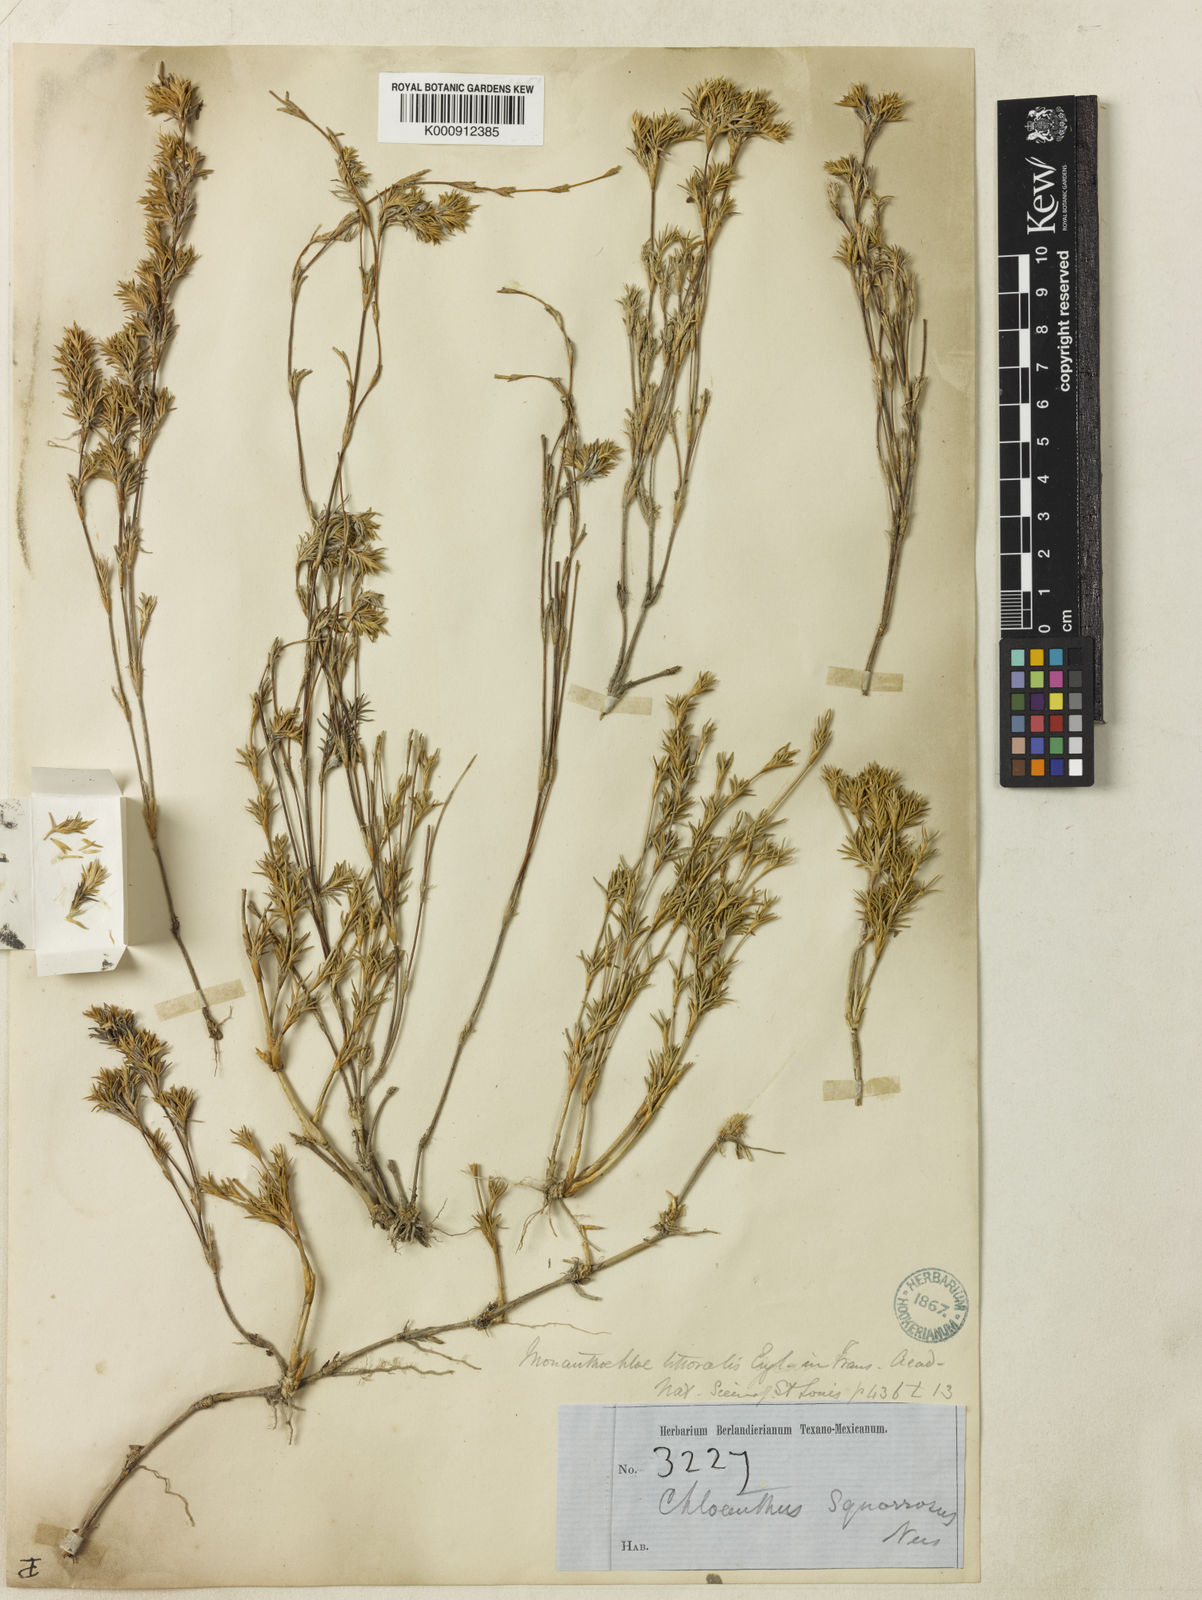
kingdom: Plantae
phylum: Tracheophyta
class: Liliopsida
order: Poales
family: Poaceae
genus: Distichlis
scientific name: Distichlis littoralis
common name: Shore grass
